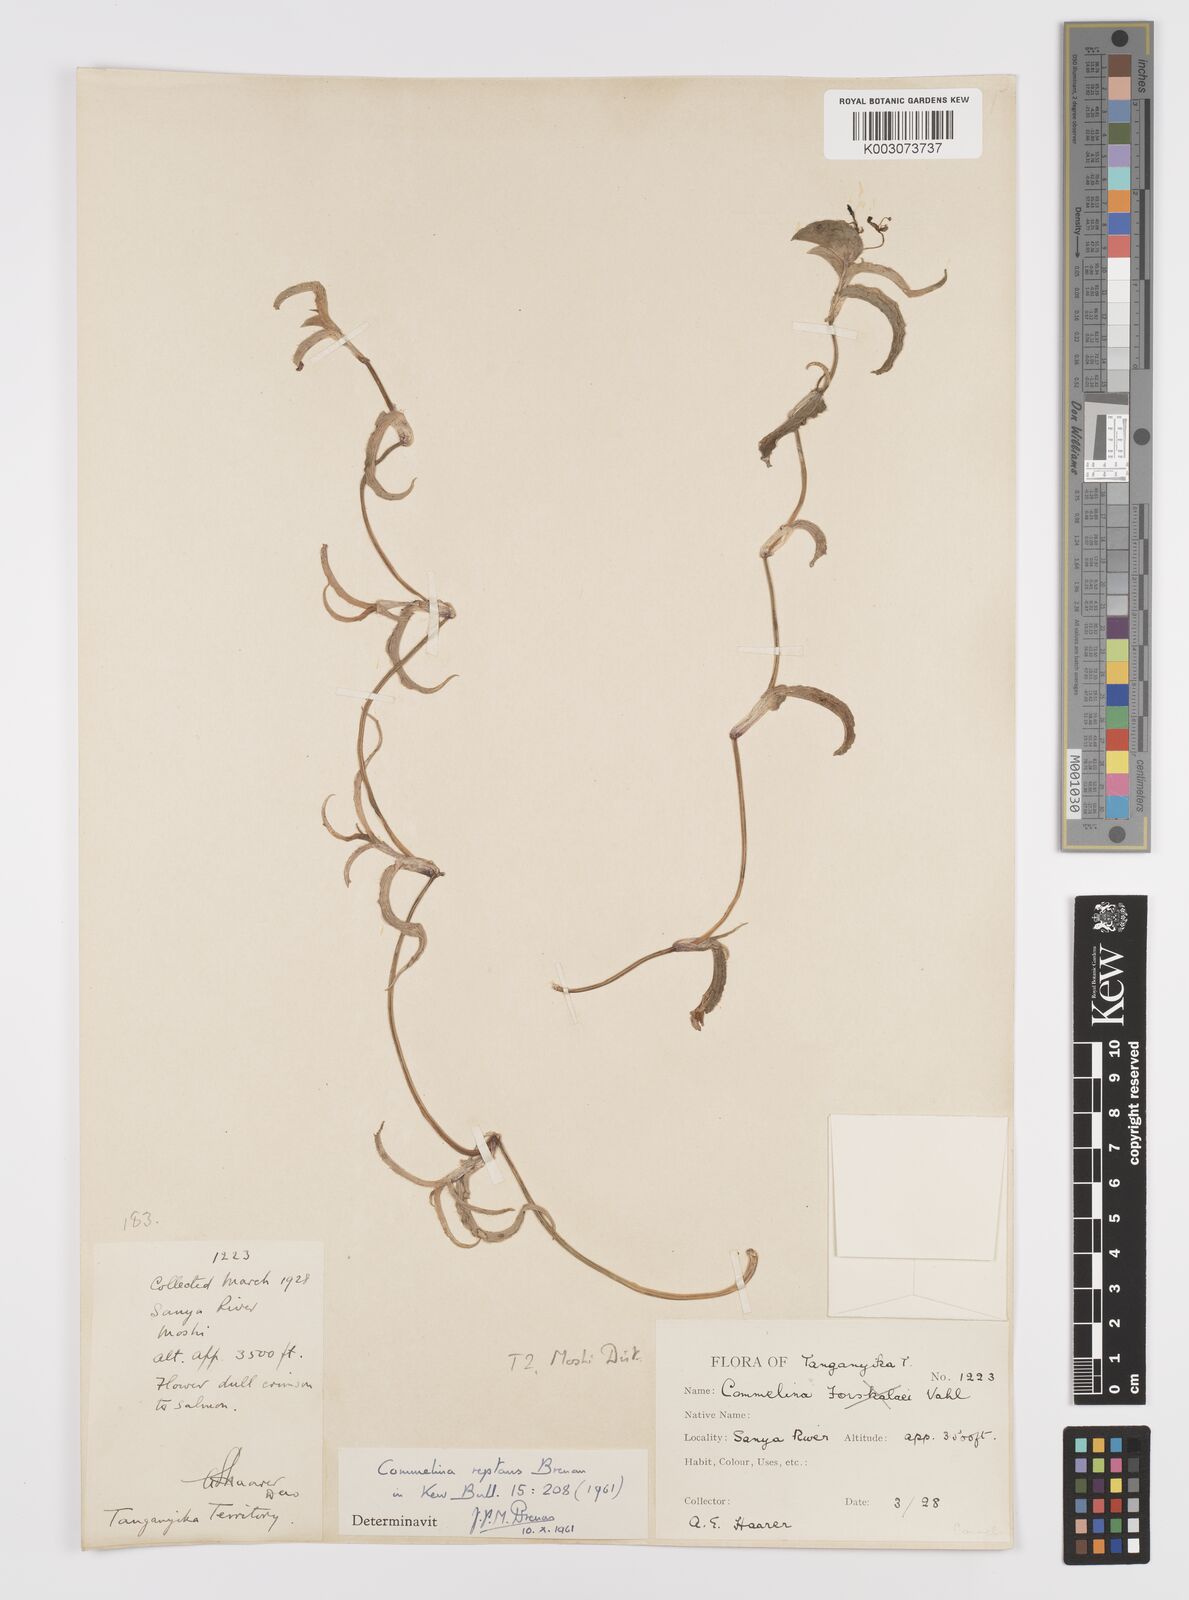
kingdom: Plantae
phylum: Tracheophyta
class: Liliopsida
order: Commelinales
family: Commelinaceae
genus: Commelina
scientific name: Commelina reptans
